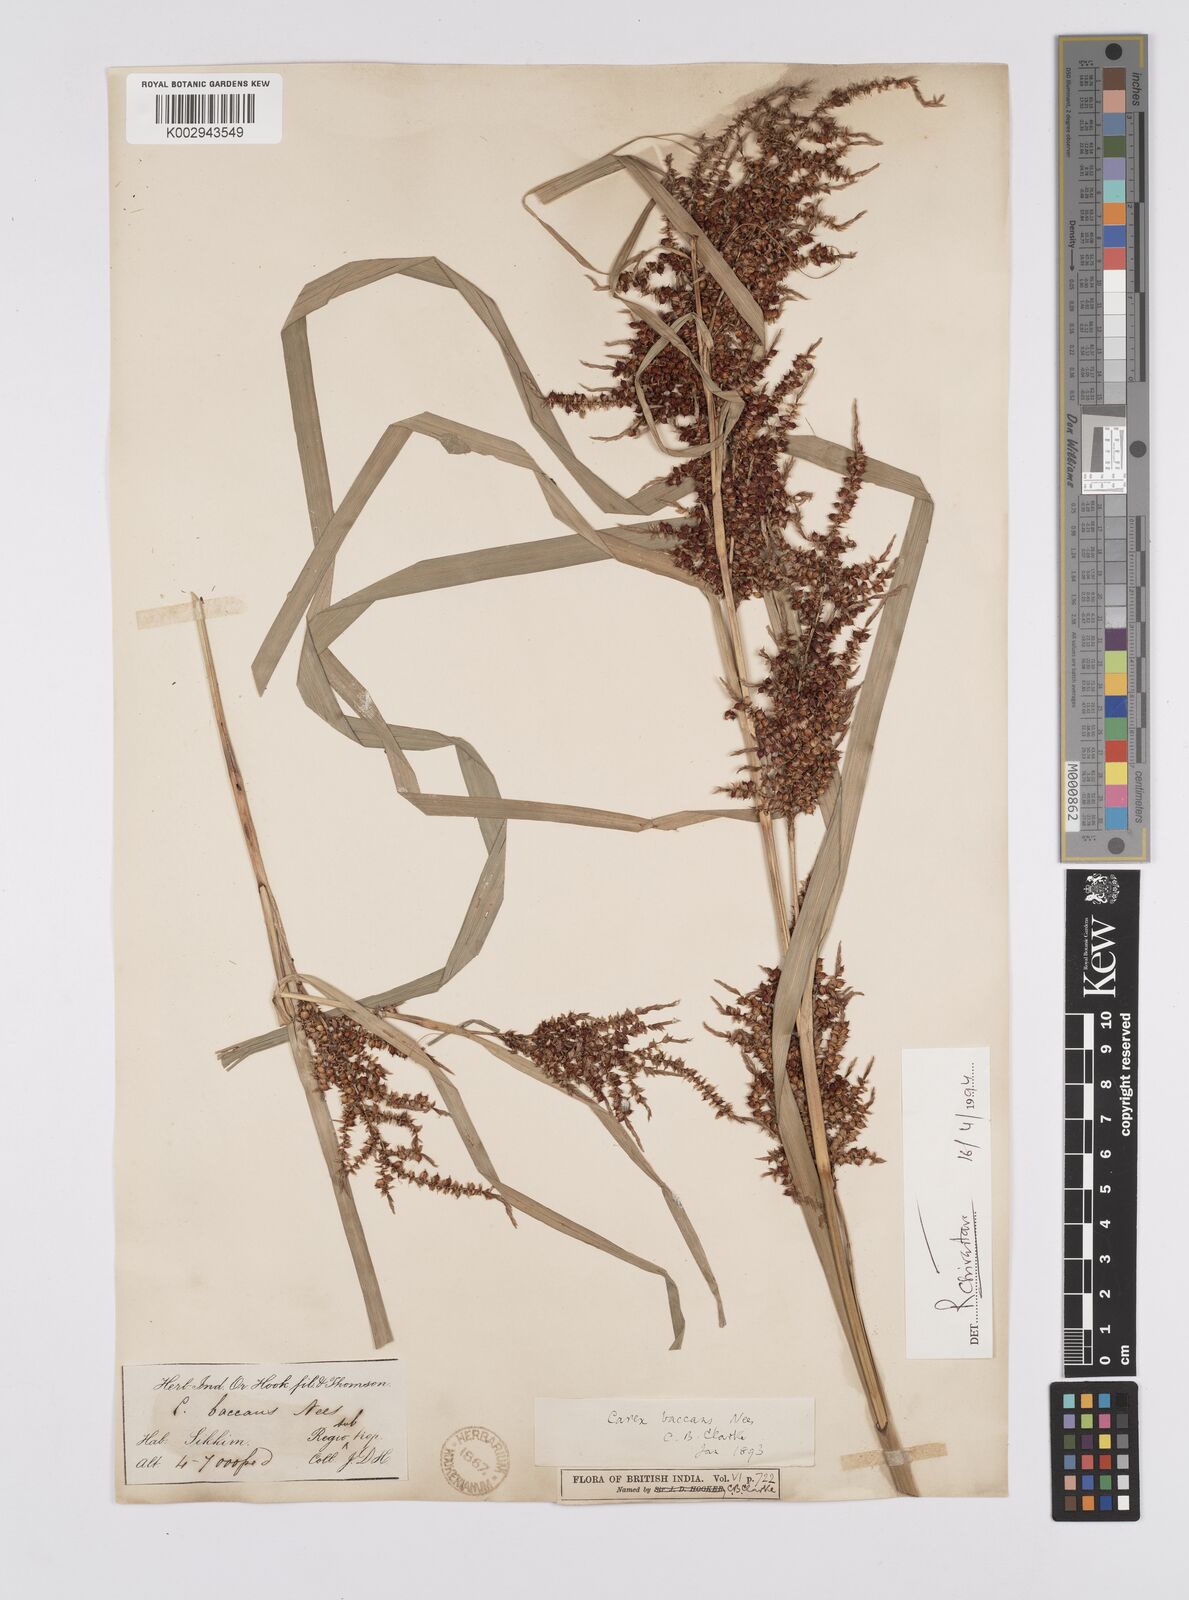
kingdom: Plantae
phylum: Tracheophyta
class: Liliopsida
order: Poales
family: Cyperaceae
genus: Carex
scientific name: Carex baccans
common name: Crimson seeded sedge
